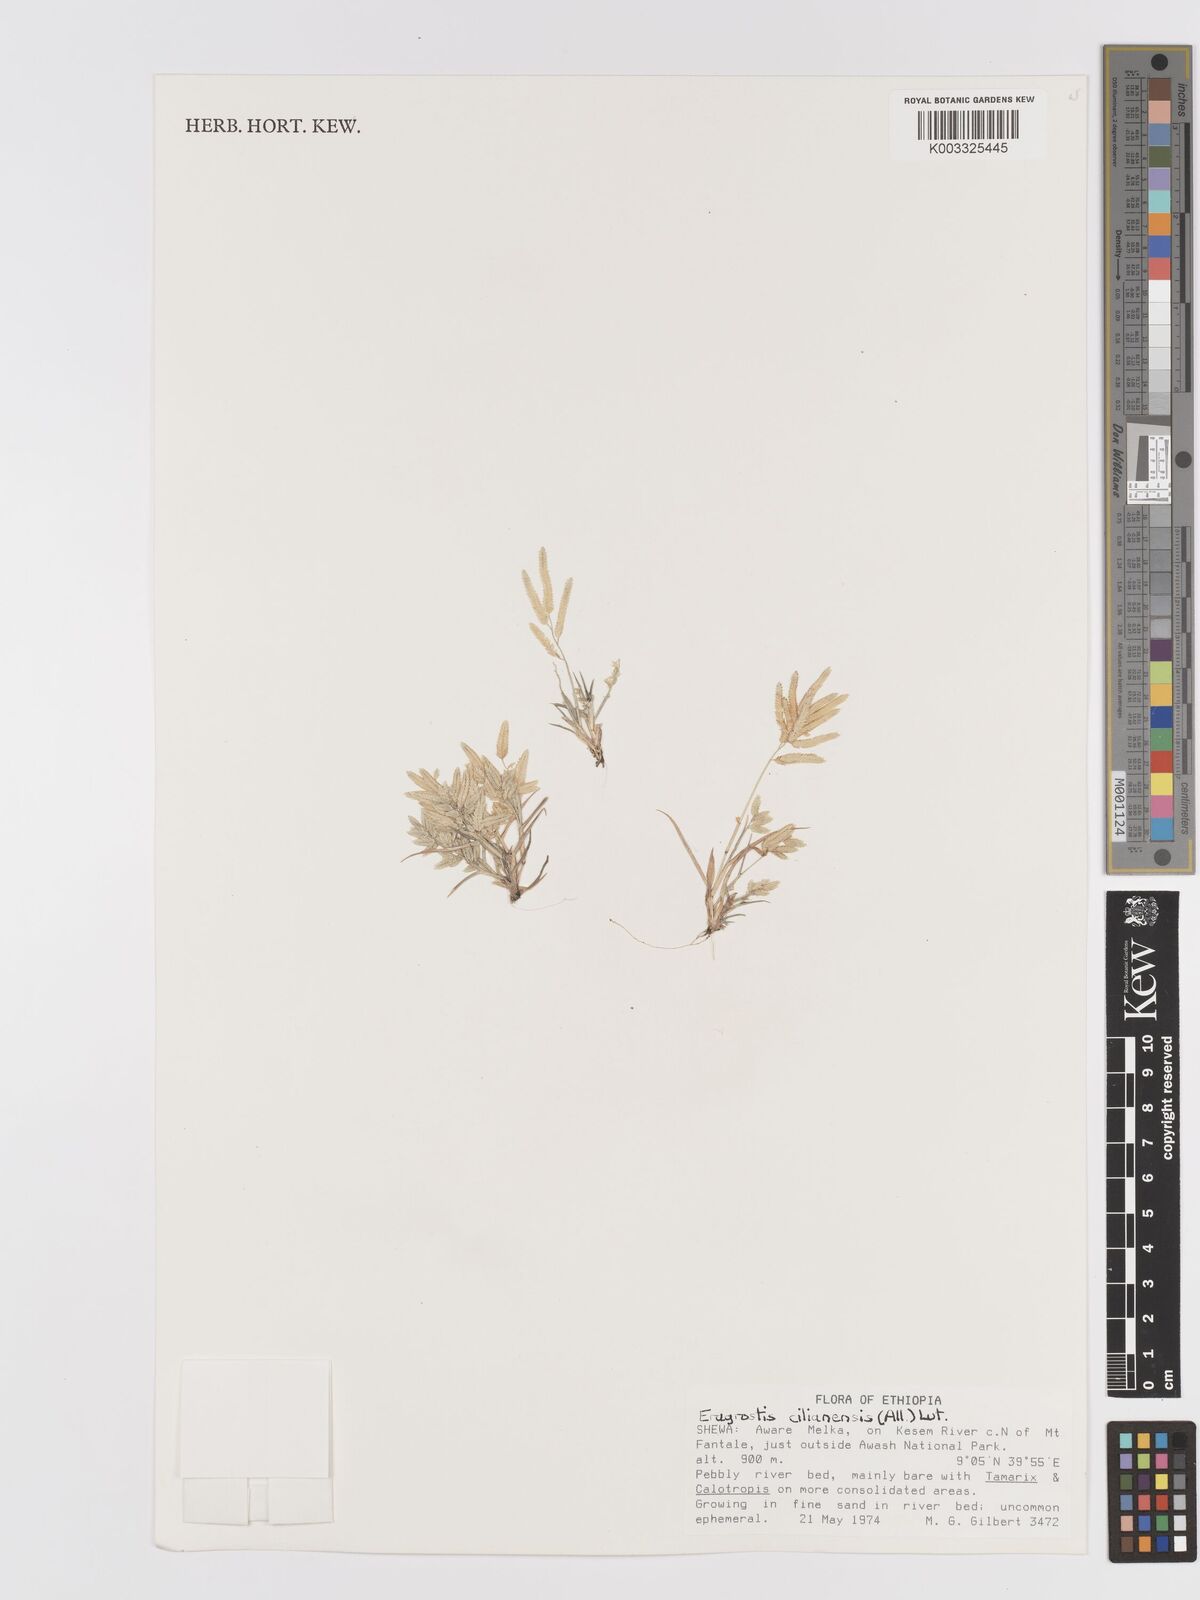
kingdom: Plantae
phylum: Tracheophyta
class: Liliopsida
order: Poales
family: Poaceae
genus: Eragrostis
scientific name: Eragrostis cilianensis
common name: Stinkgrass
